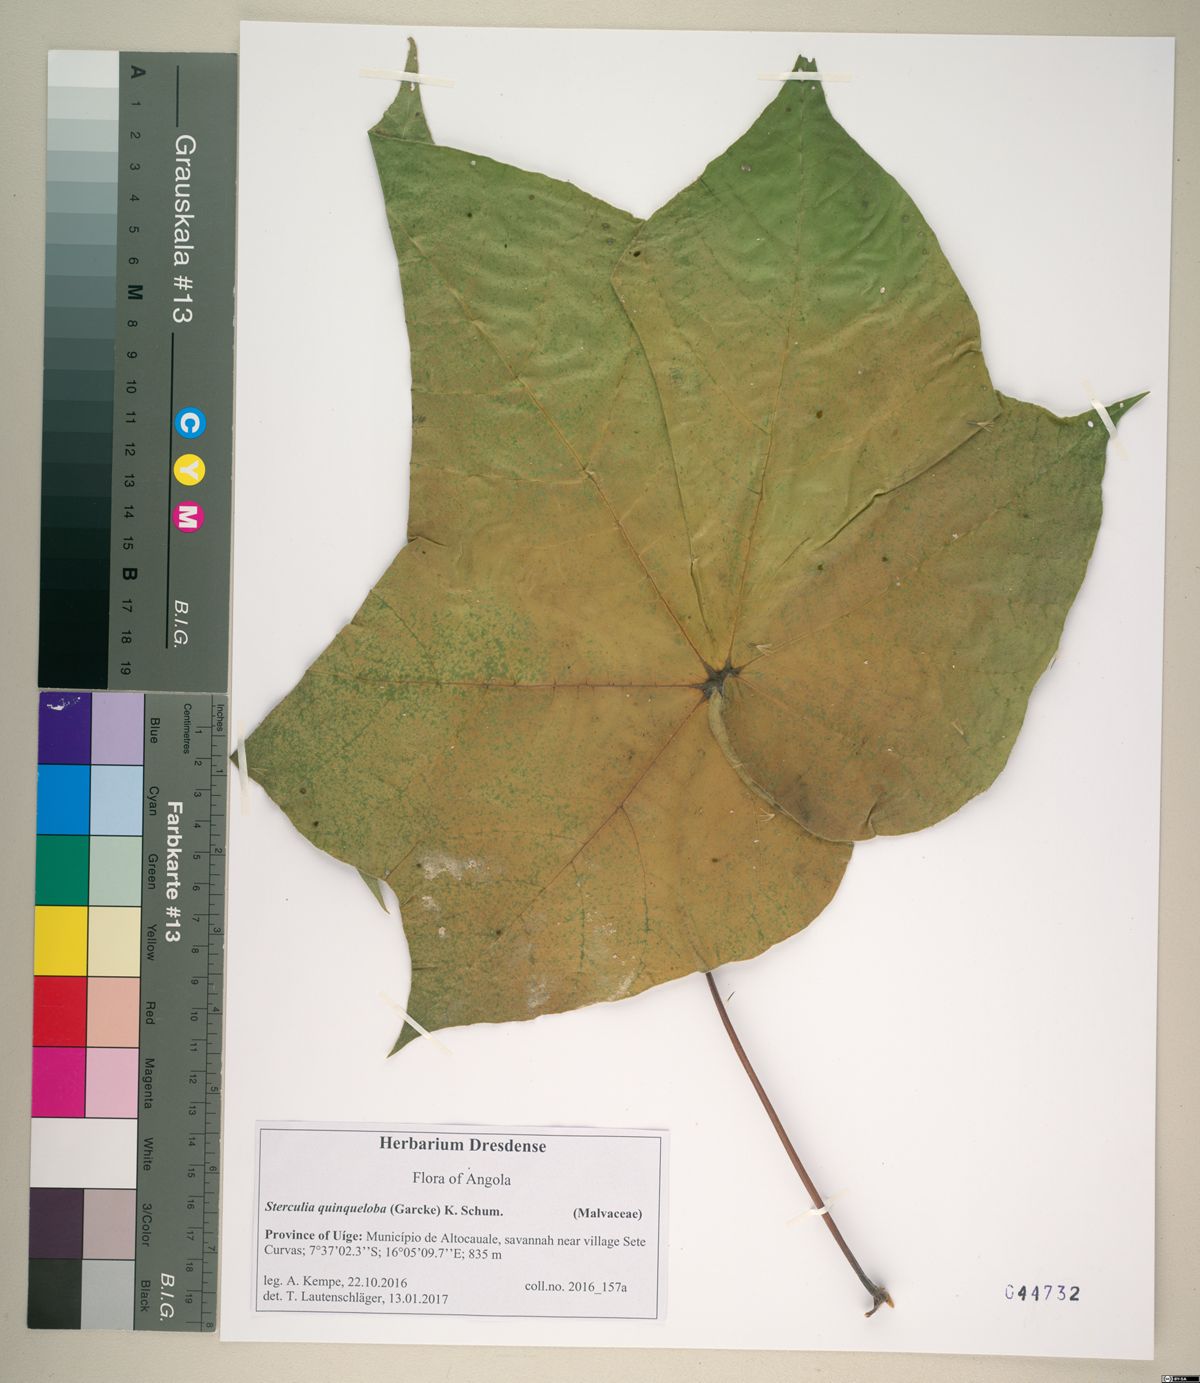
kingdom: Plantae
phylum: Tracheophyta
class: Magnoliopsida
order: Malvales
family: Malvaceae
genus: Sterculia
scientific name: Sterculia quinqueloba
